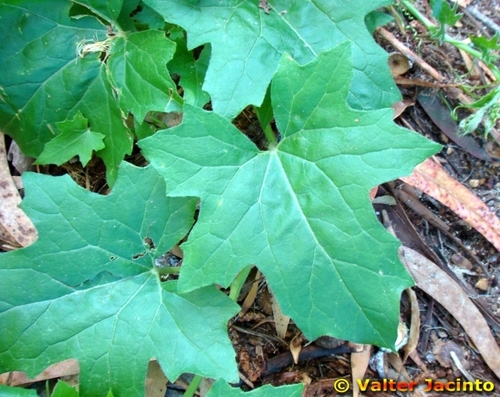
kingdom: Plantae
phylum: Tracheophyta
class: Magnoliopsida
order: Cucurbitales
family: Cucurbitaceae
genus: Bryonia
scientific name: Bryonia dioica
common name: White bryony
